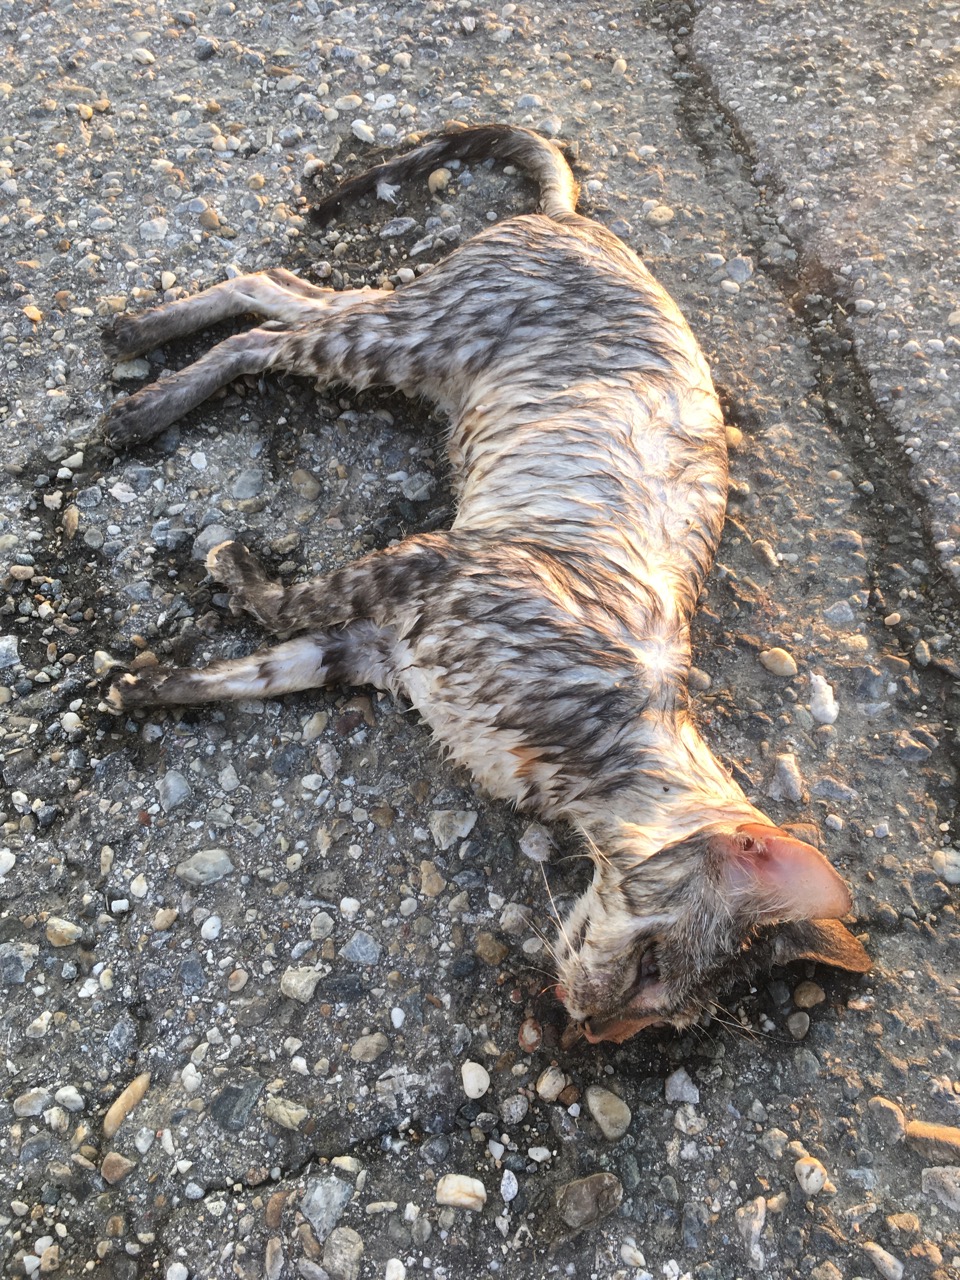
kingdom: Animalia
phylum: Chordata
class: Mammalia
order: Carnivora
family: Felidae
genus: Felis
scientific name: Felis catus
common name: Domestic cat
